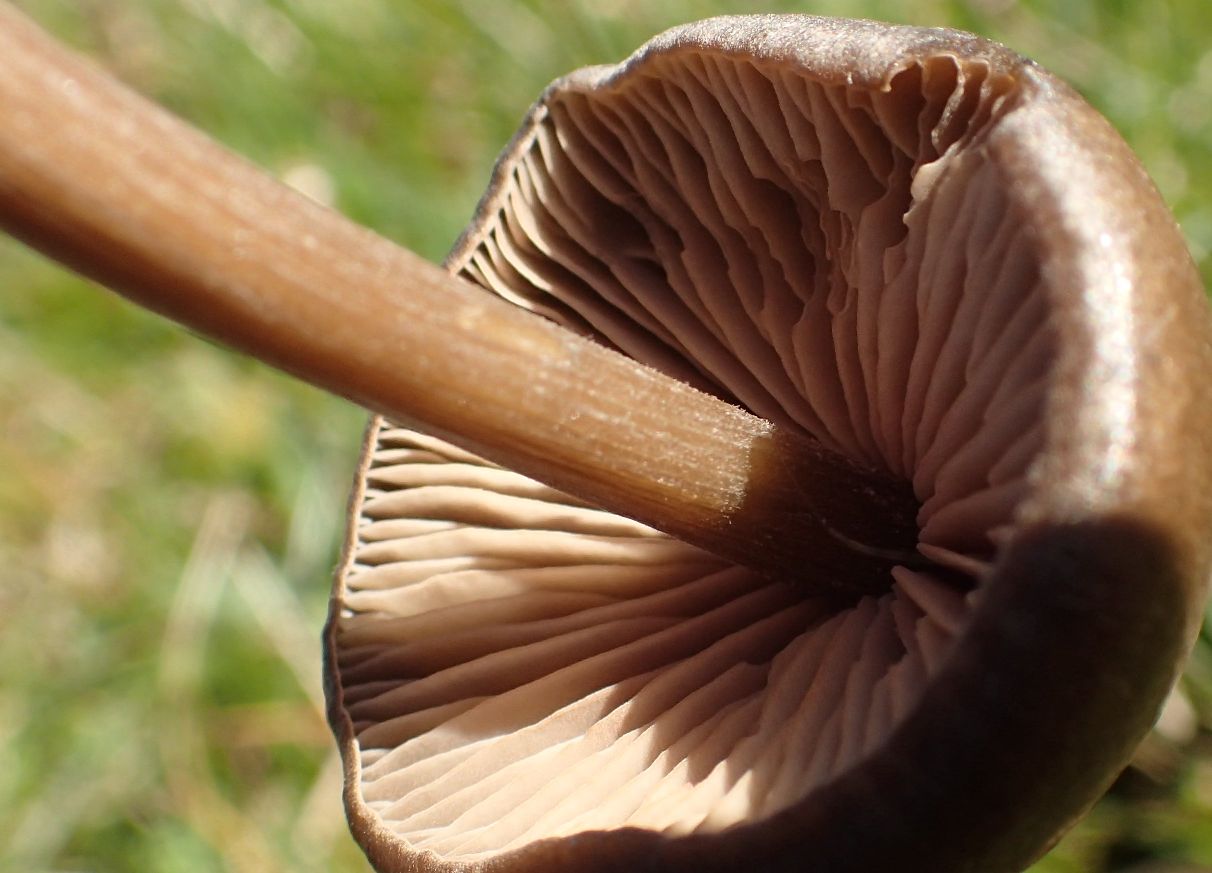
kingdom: Fungi
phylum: Basidiomycota
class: Agaricomycetes
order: Agaricales
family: Entolomataceae
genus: Entoloma
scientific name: Entoloma vernum
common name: vår-rødblad
